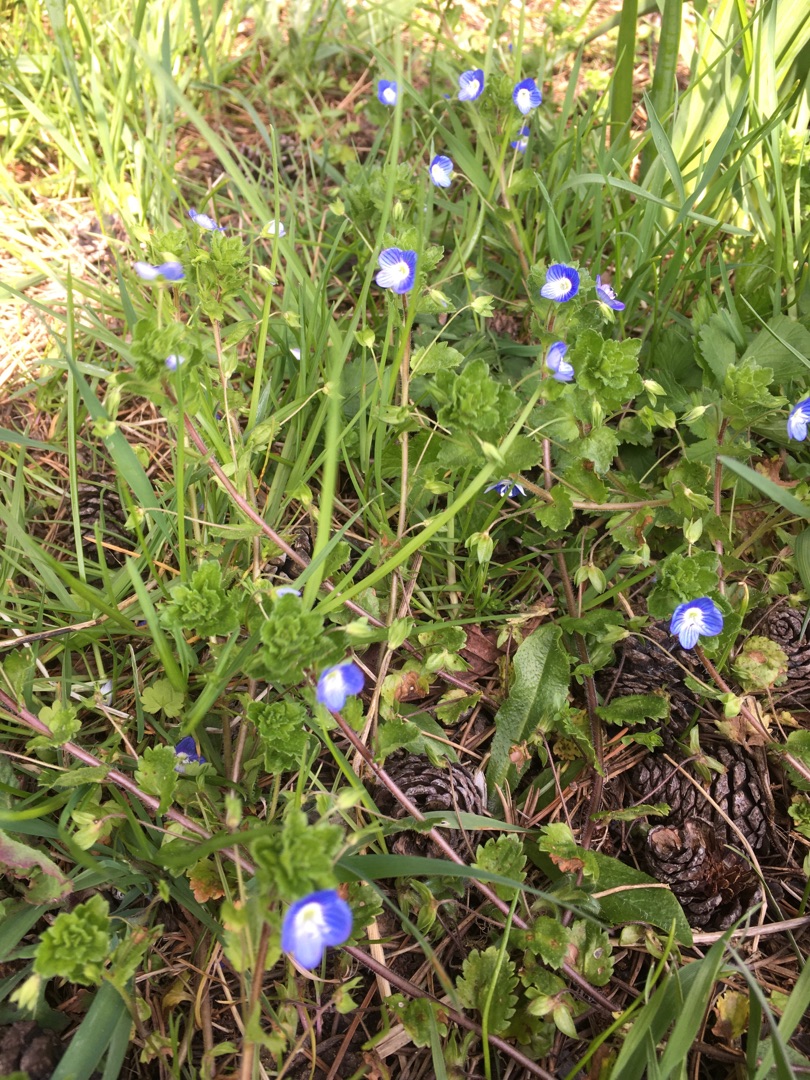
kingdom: Plantae
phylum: Tracheophyta
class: Magnoliopsida
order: Lamiales
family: Plantaginaceae
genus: Veronica
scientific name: Veronica persica
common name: Storkronet ærenpris
